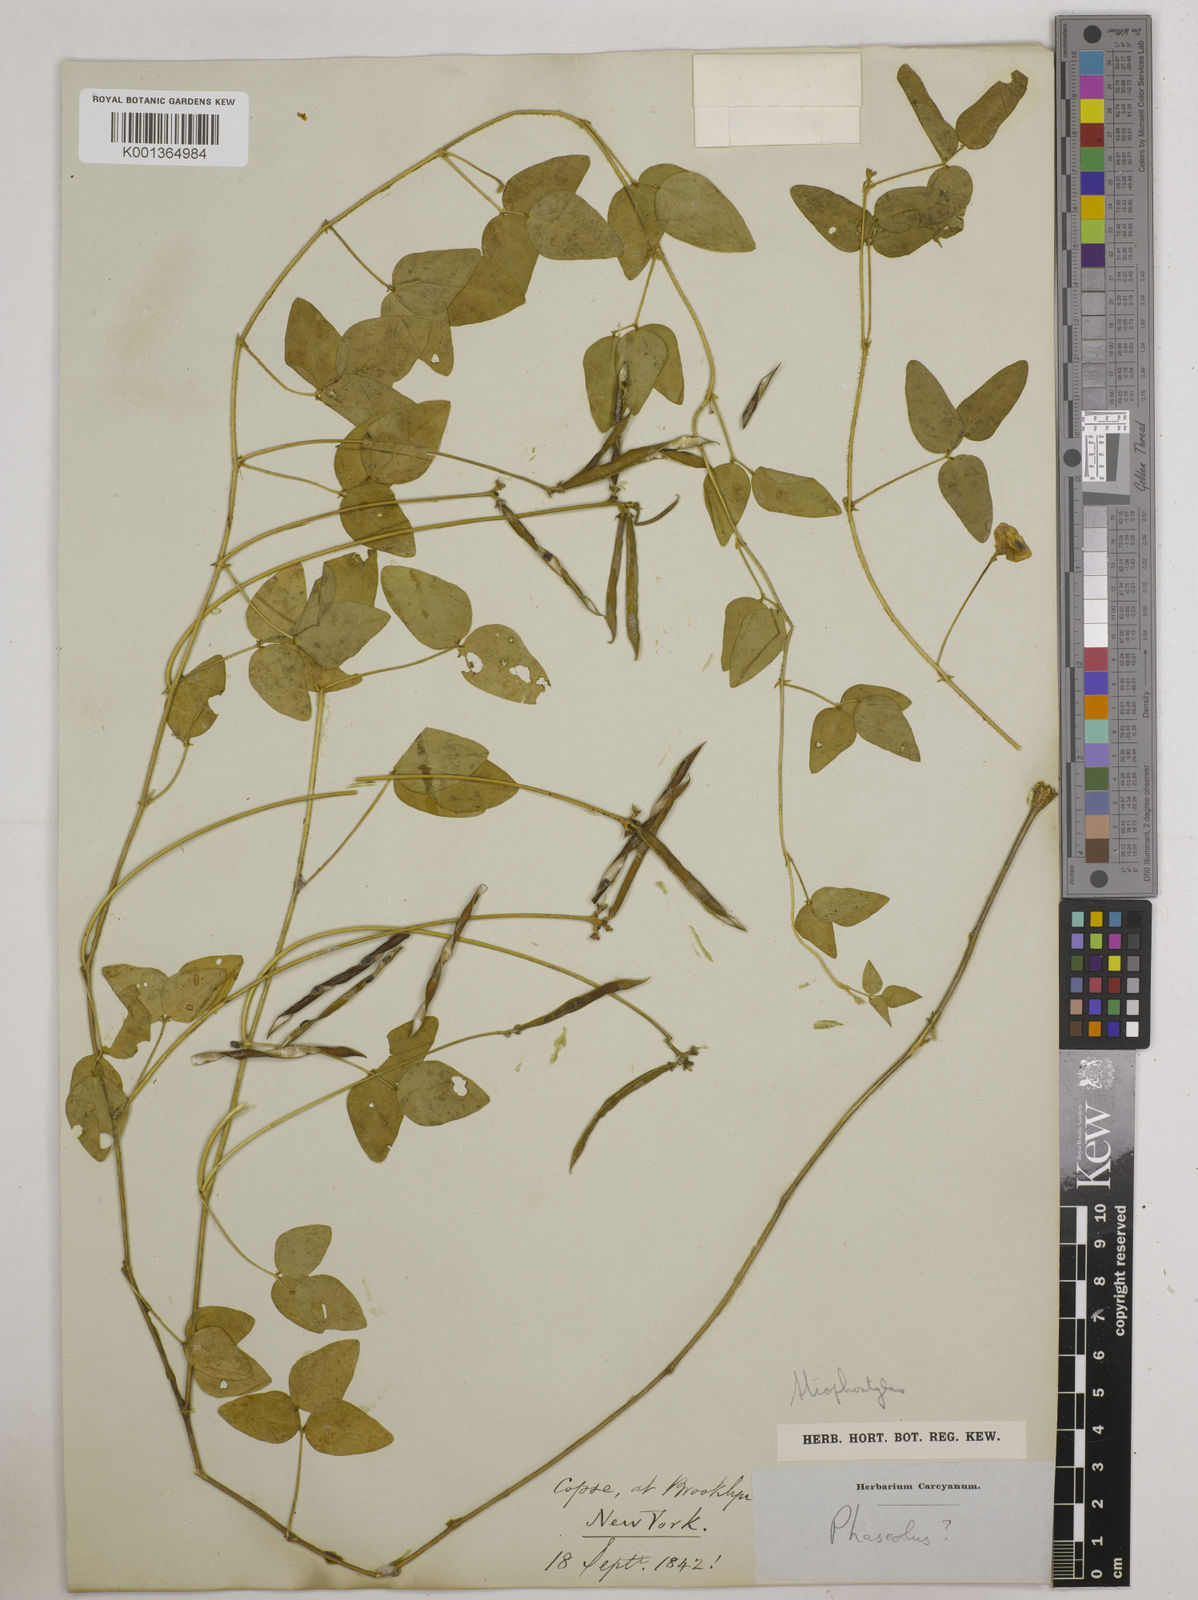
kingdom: Plantae
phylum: Tracheophyta
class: Magnoliopsida
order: Fabales
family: Fabaceae
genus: Strophostyles
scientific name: Strophostyles
